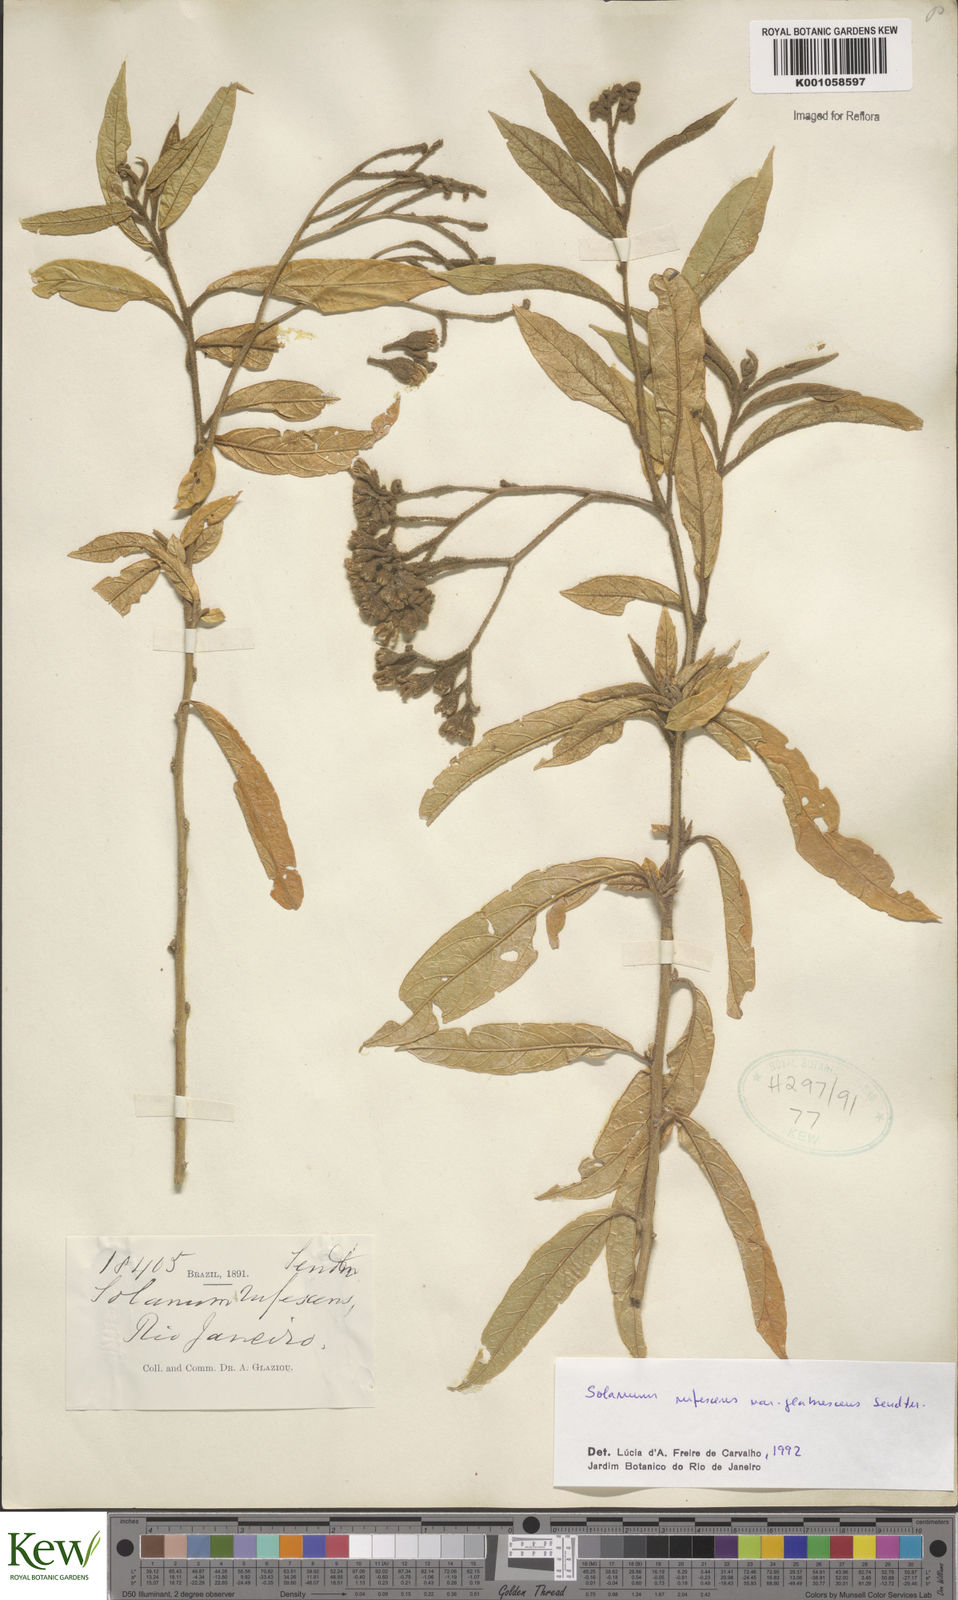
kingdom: Plantae
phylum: Tracheophyta
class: Magnoliopsida
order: Solanales
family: Solanaceae
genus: Solanum
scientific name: Solanum rufescens
